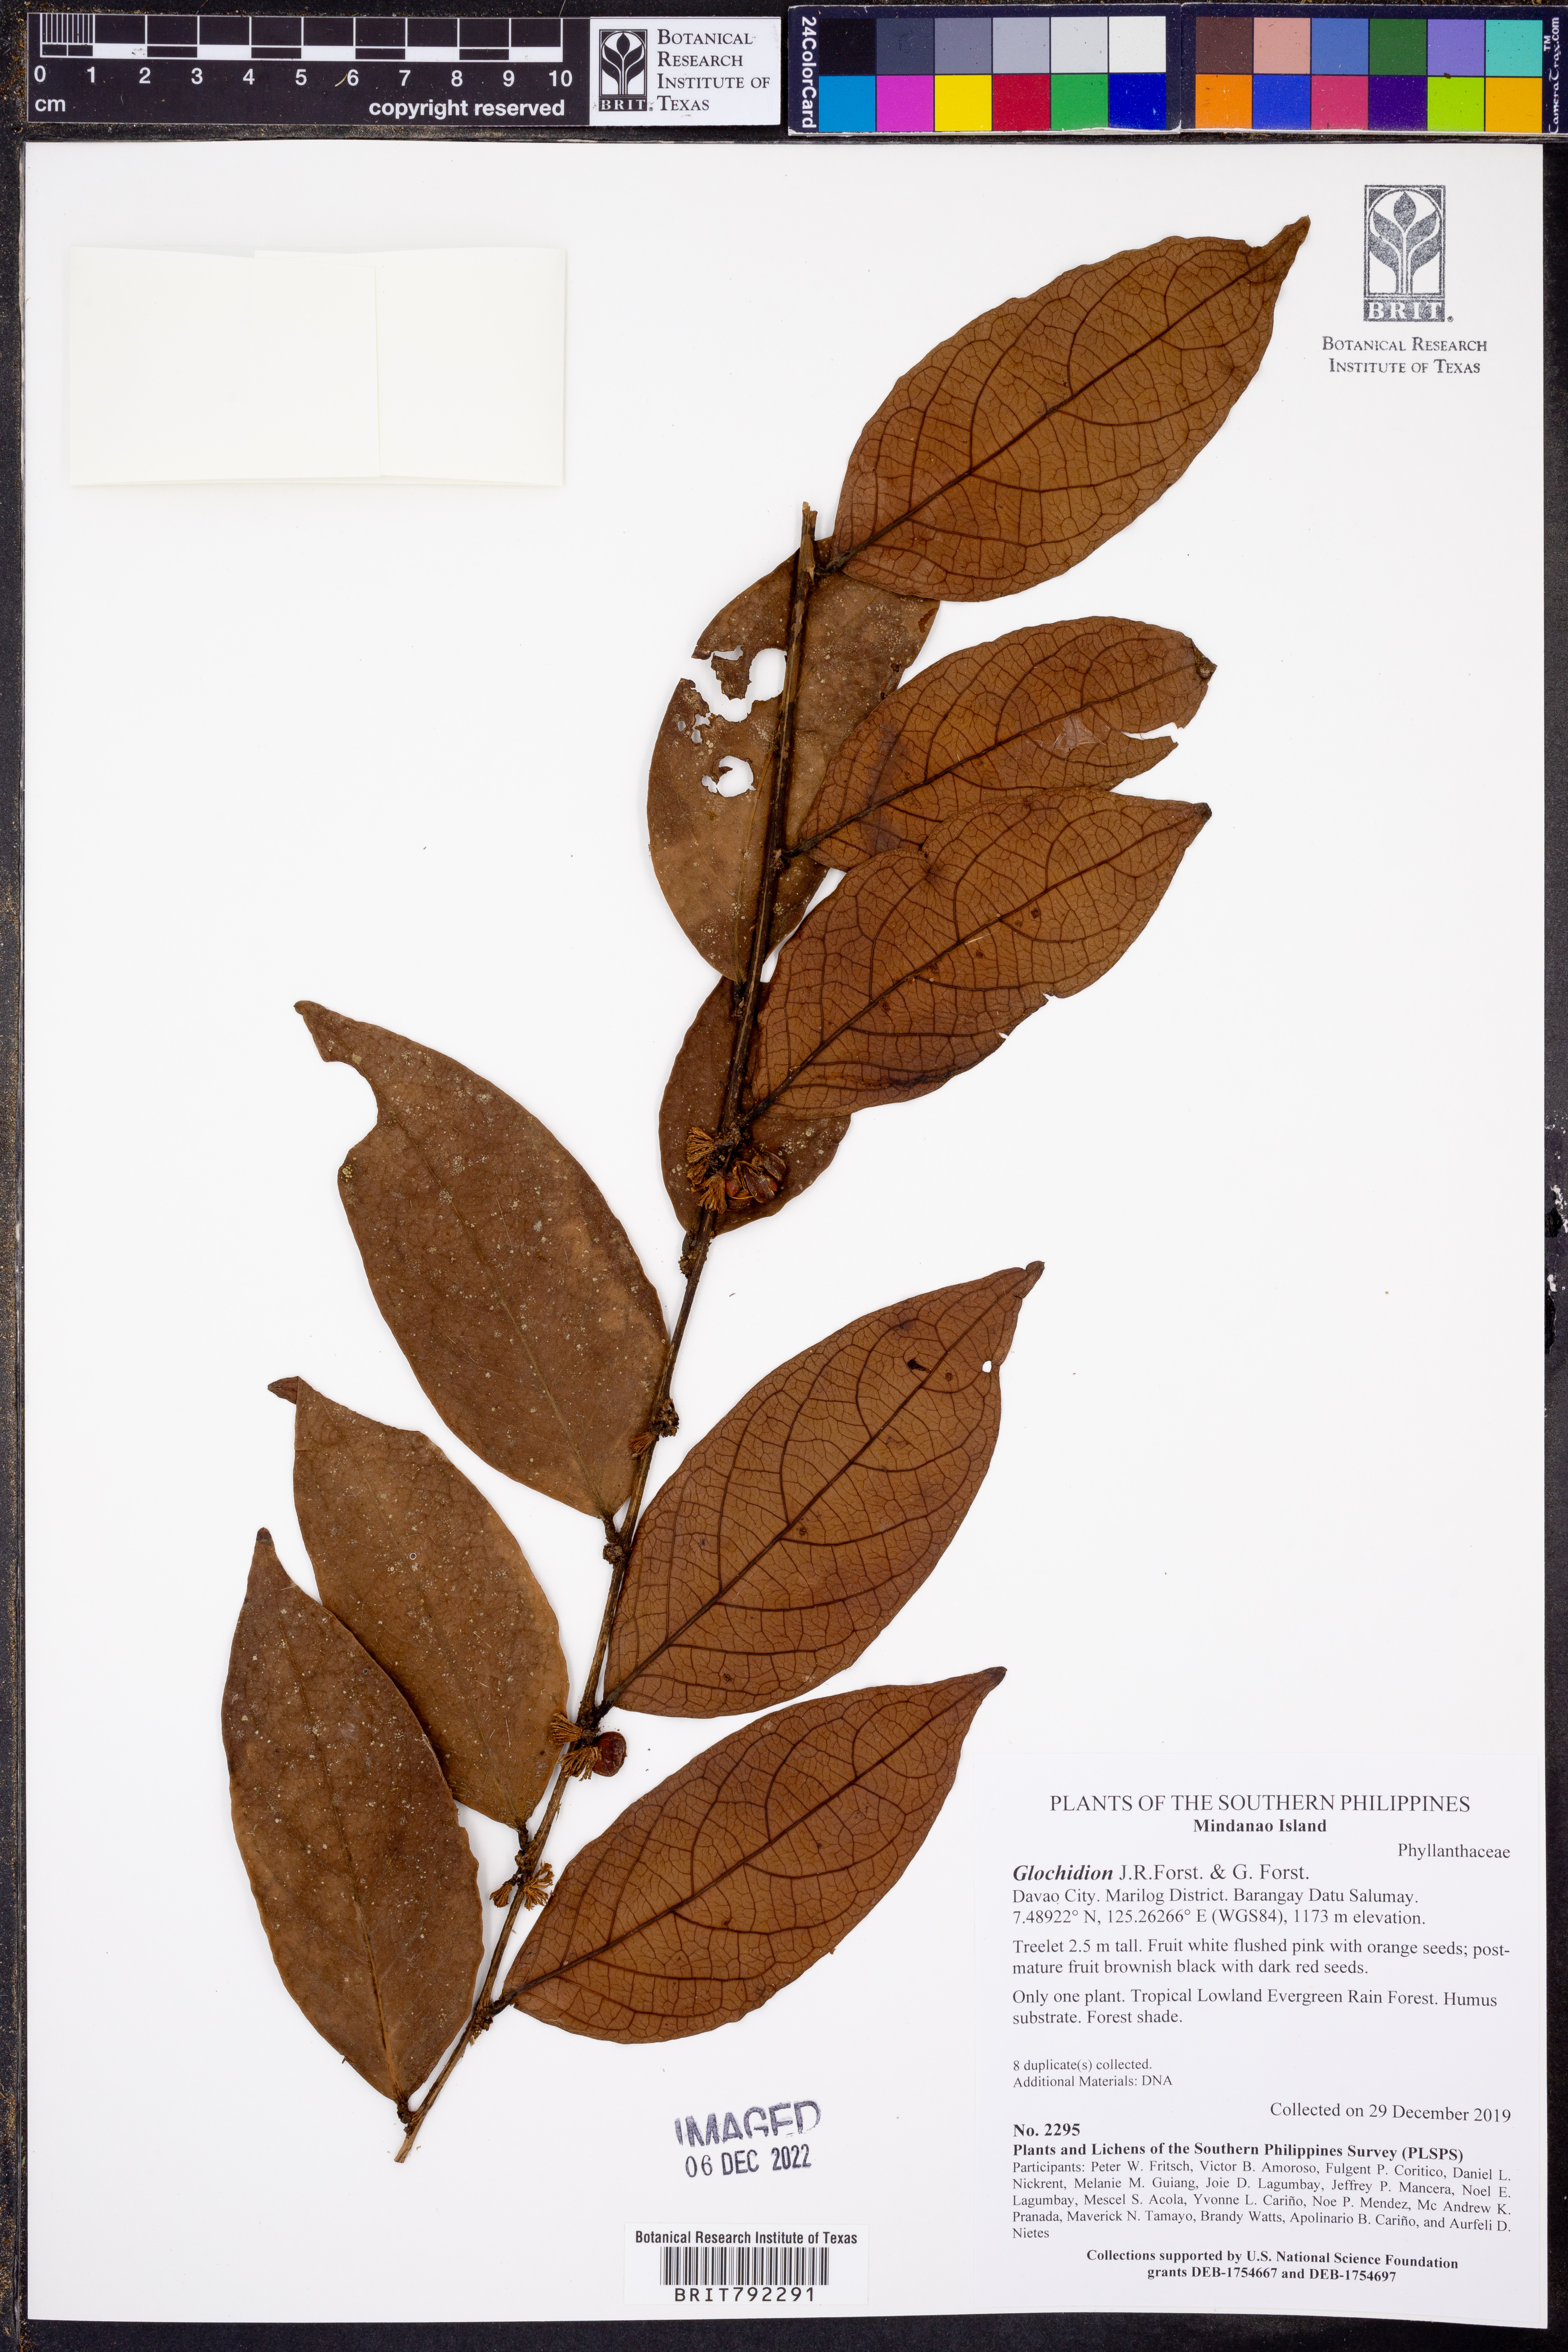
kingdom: Plantae
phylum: Tracheophyta
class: Magnoliopsida
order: Malpighiales
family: Phyllanthaceae
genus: Glochidion
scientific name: Glochidion
